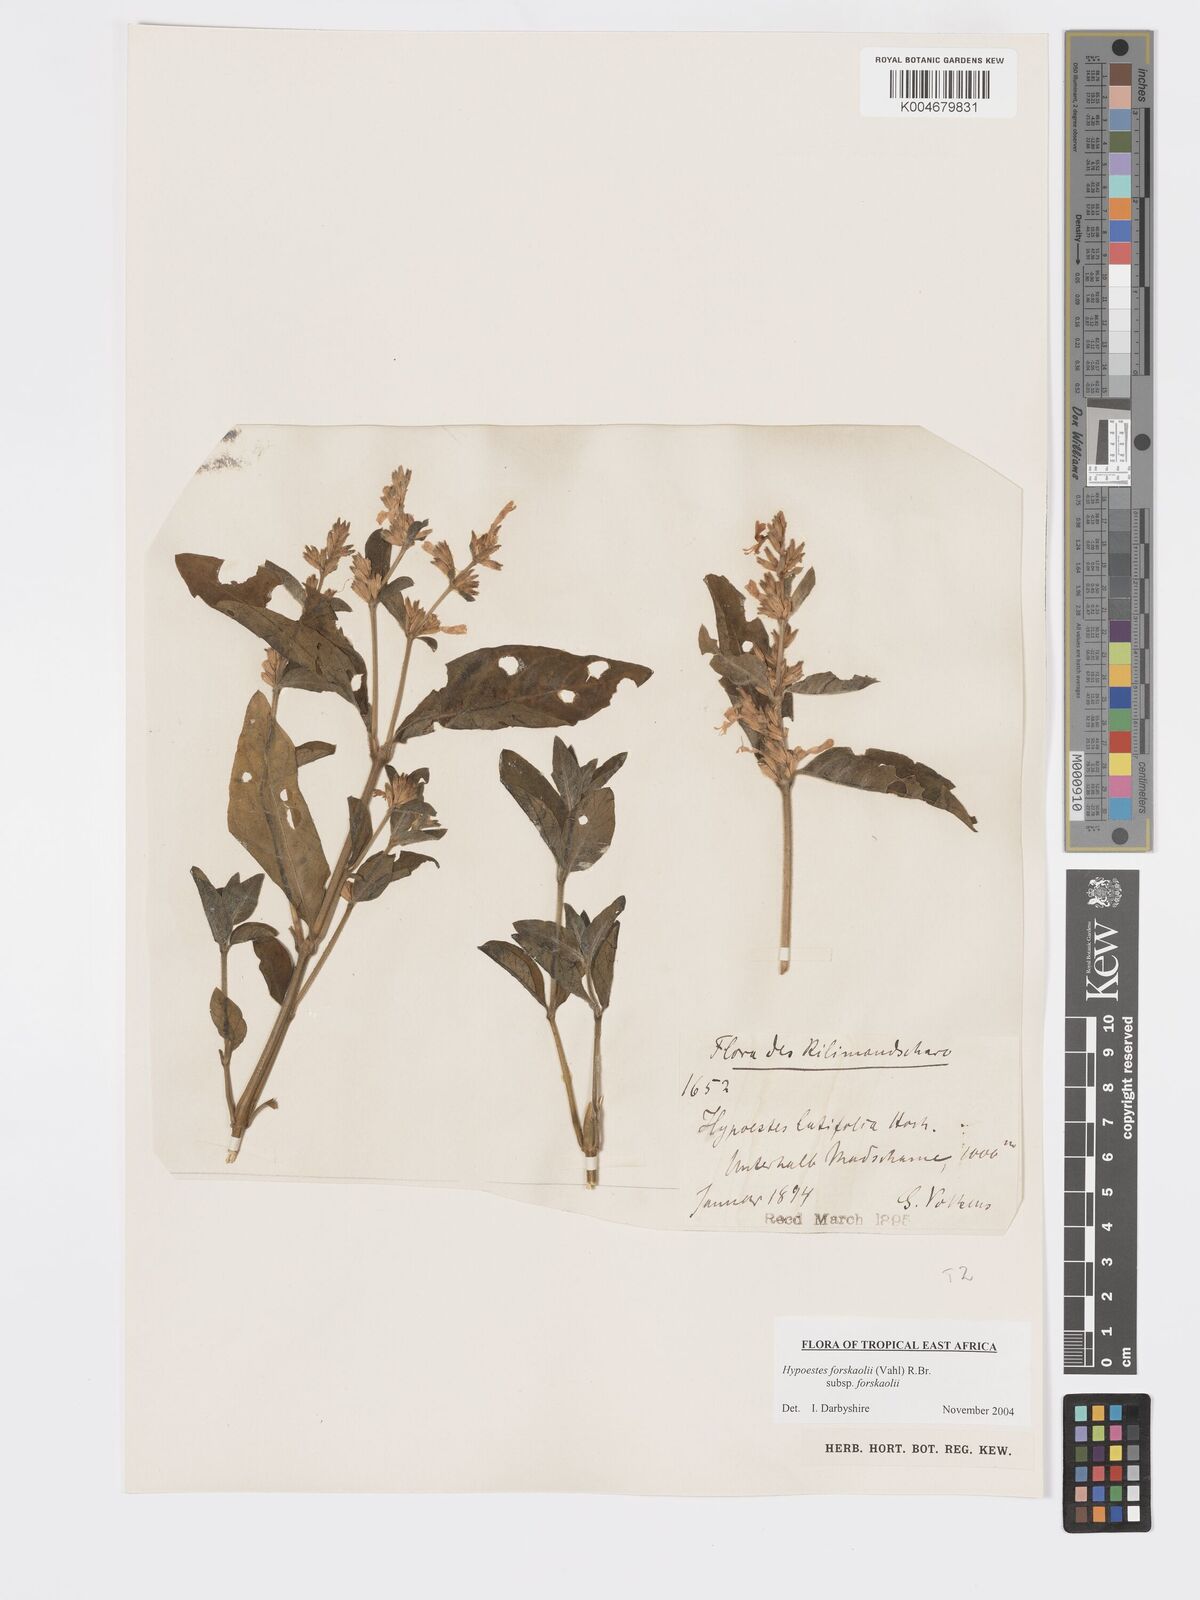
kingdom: Plantae
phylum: Tracheophyta
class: Magnoliopsida
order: Lamiales
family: Acanthaceae
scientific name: Acanthaceae
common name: Acanthaceae
